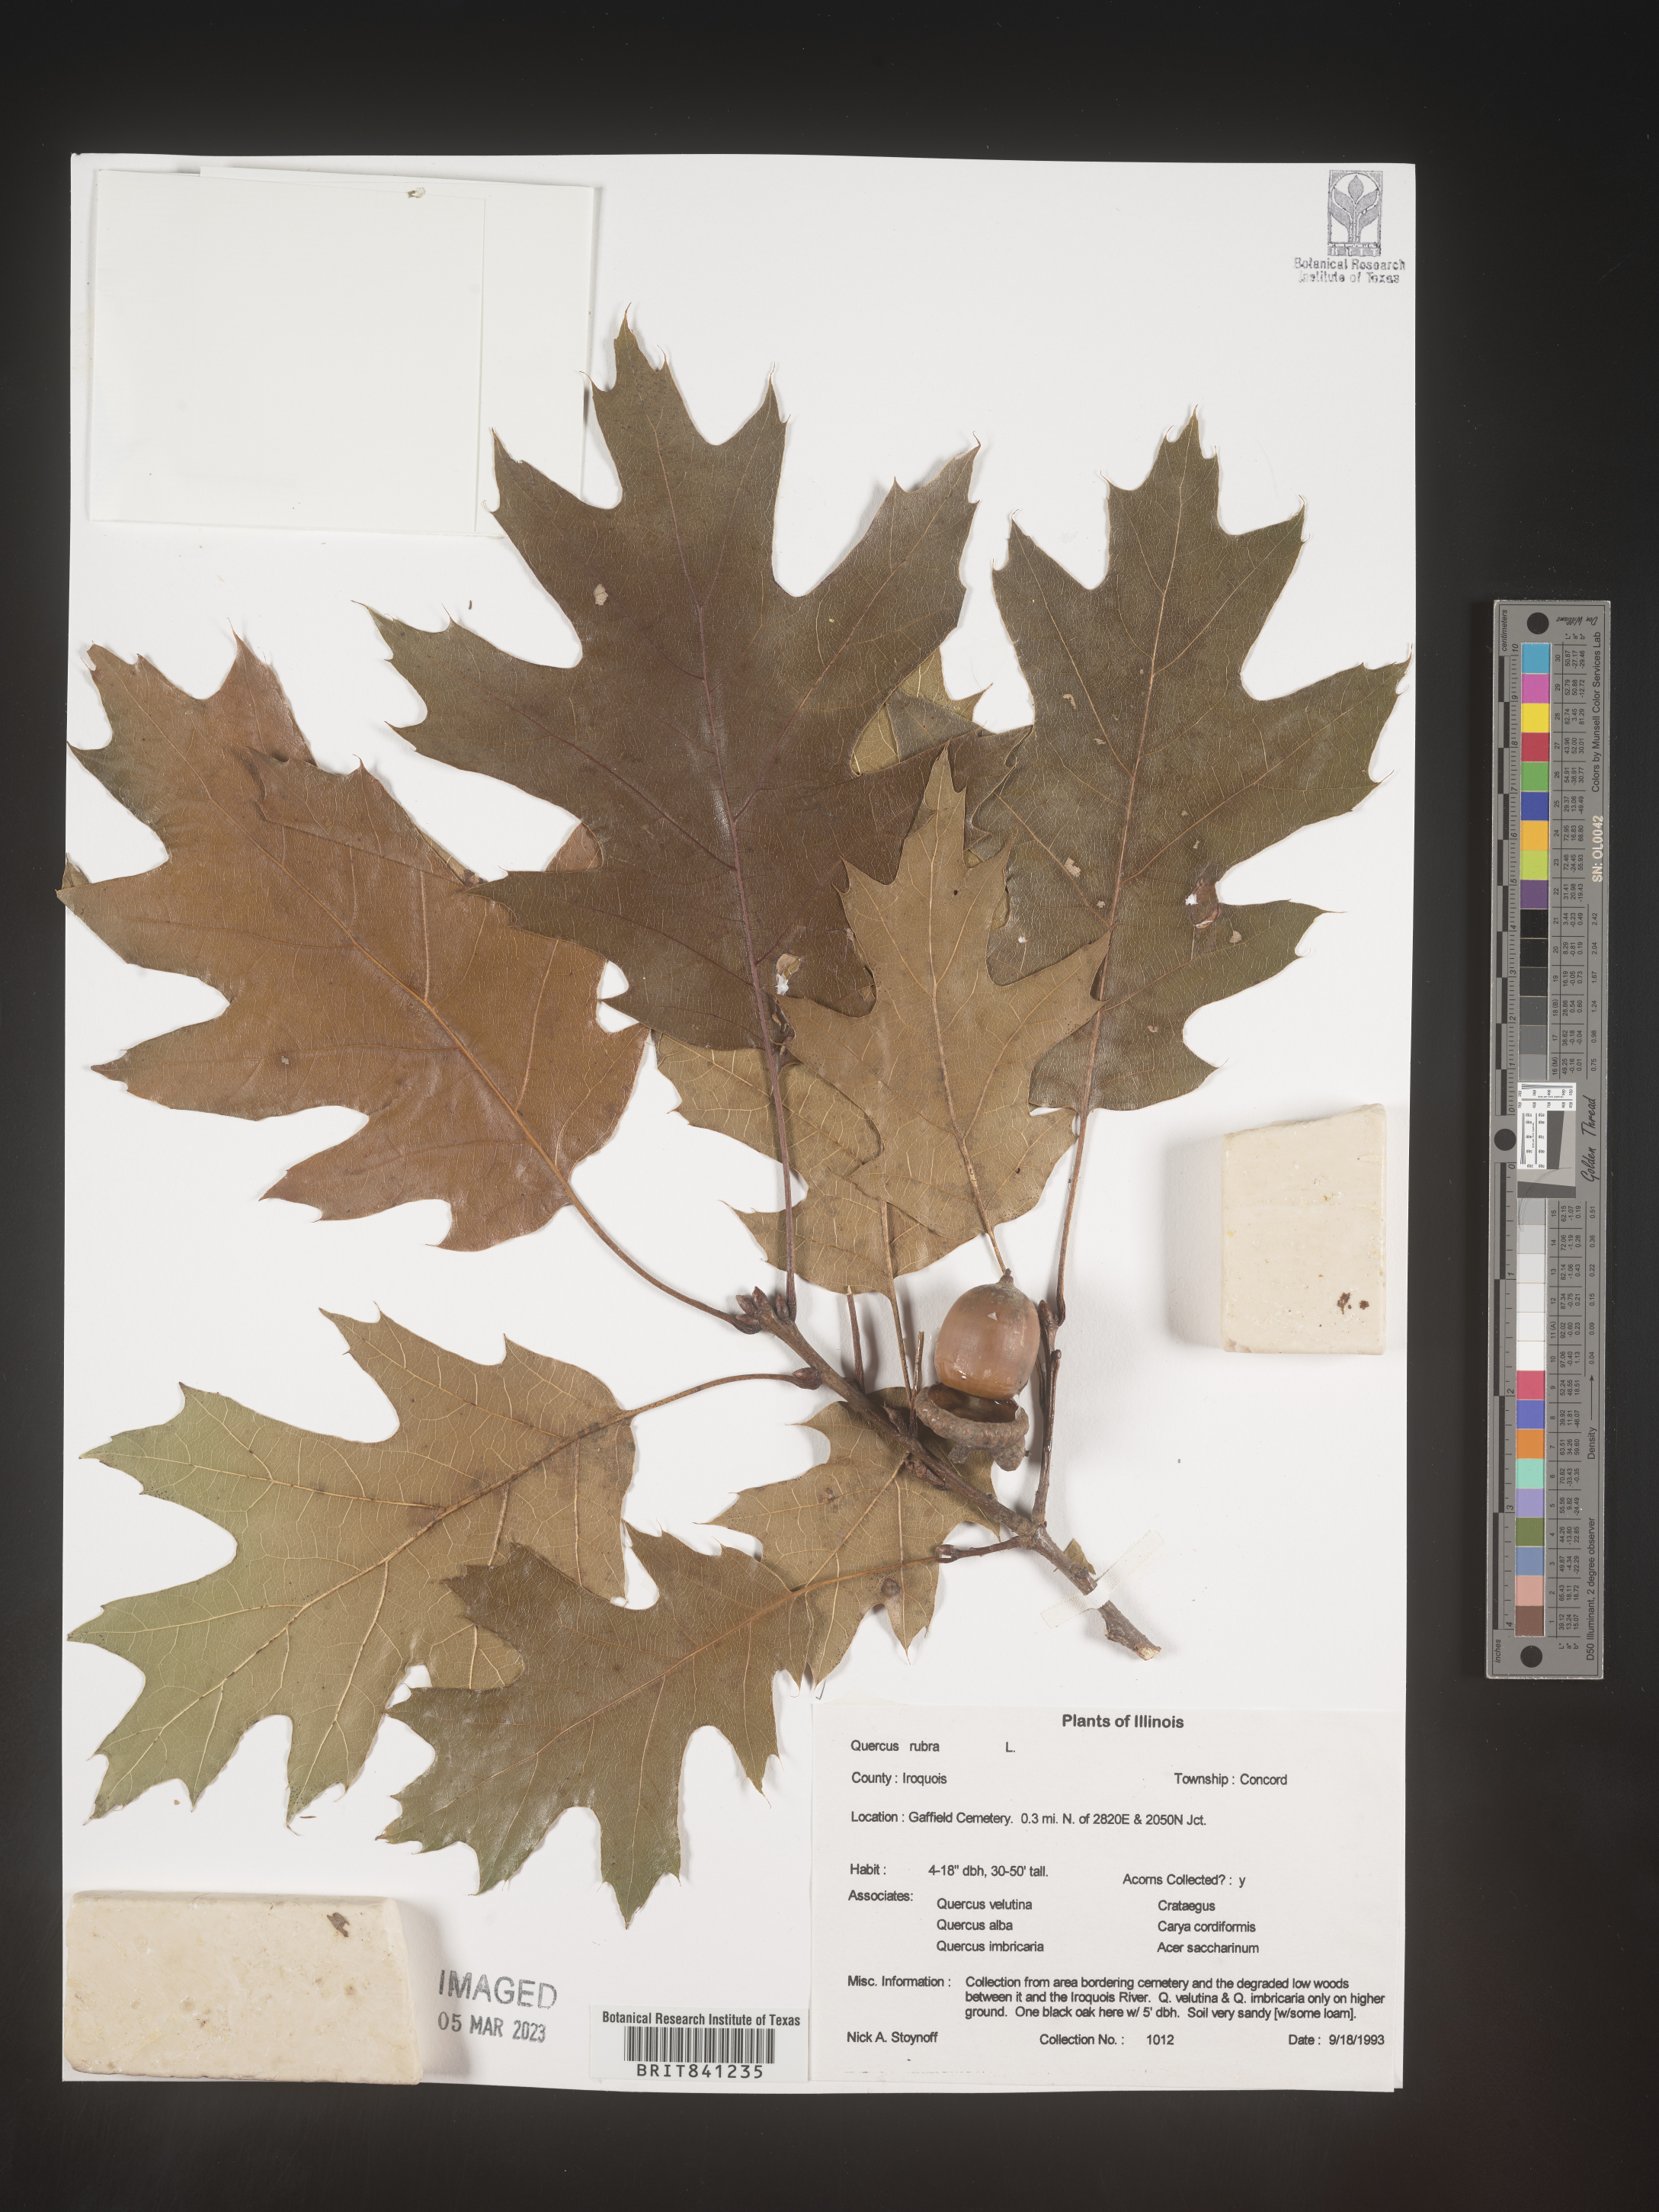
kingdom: Plantae
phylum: Tracheophyta
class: Magnoliopsida
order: Fagales
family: Fagaceae
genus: Quercus
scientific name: Quercus rubra
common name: Red oak
